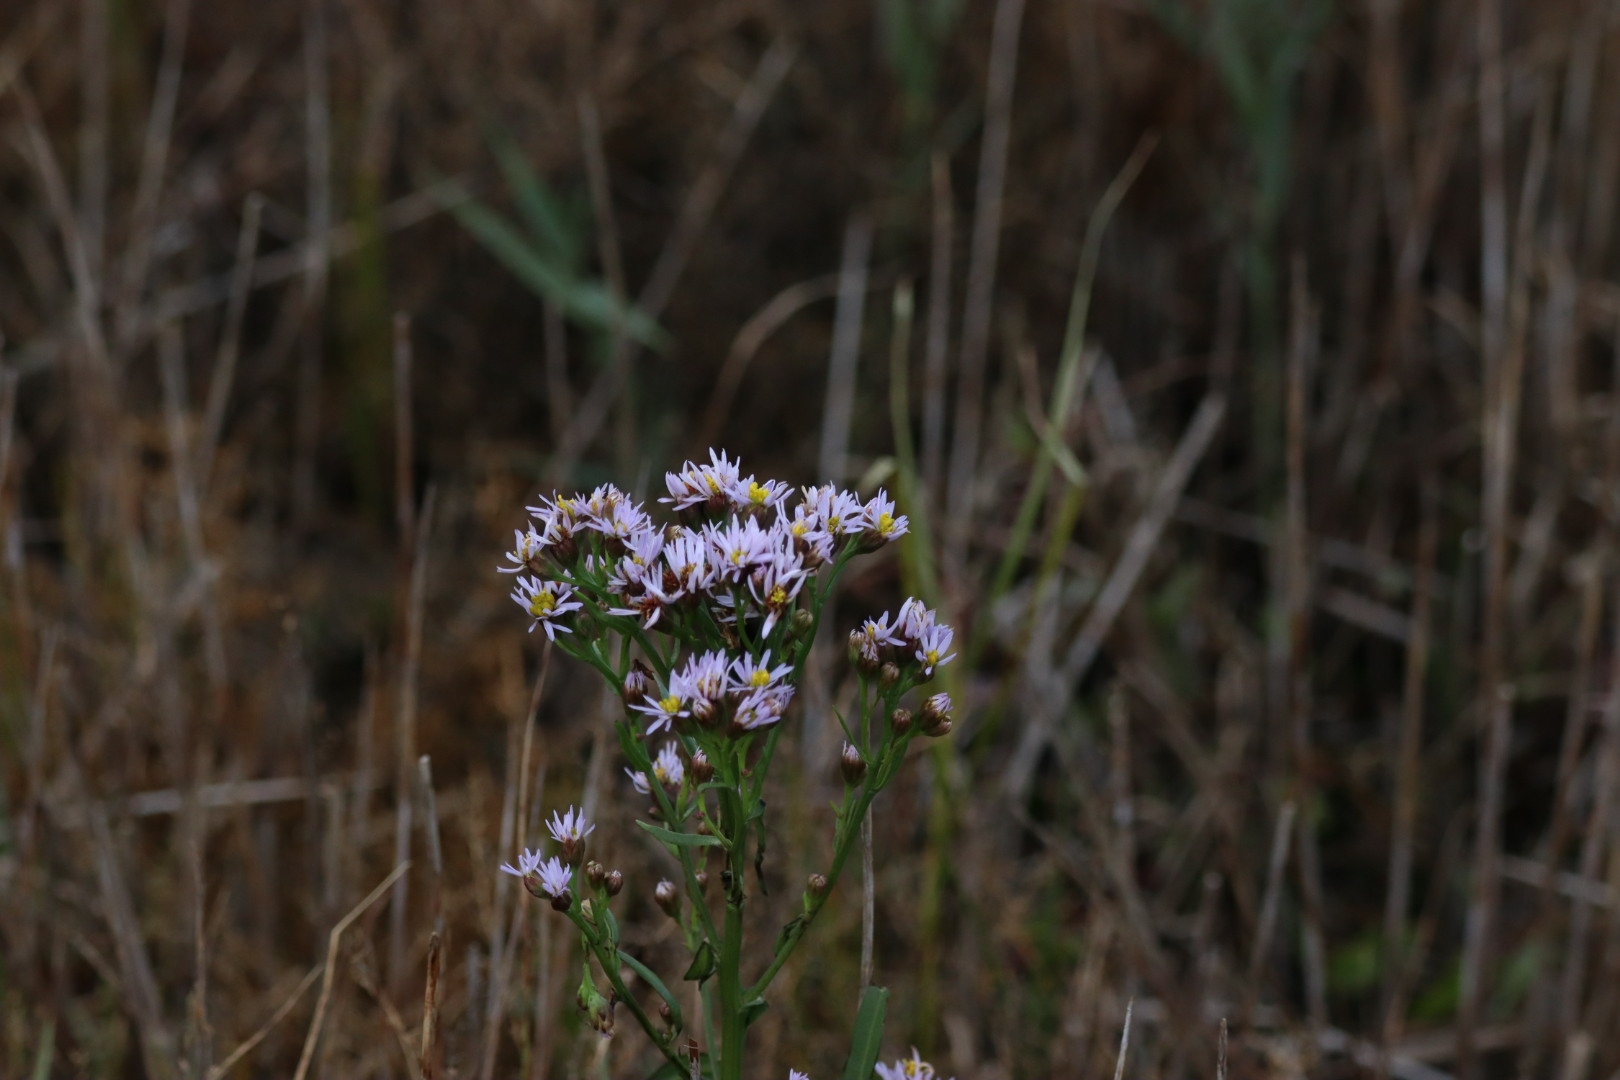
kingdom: Plantae
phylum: Tracheophyta
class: Magnoliopsida
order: Asterales
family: Asteraceae
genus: Tripolium
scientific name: Tripolium pannonicum
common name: Strandasters
